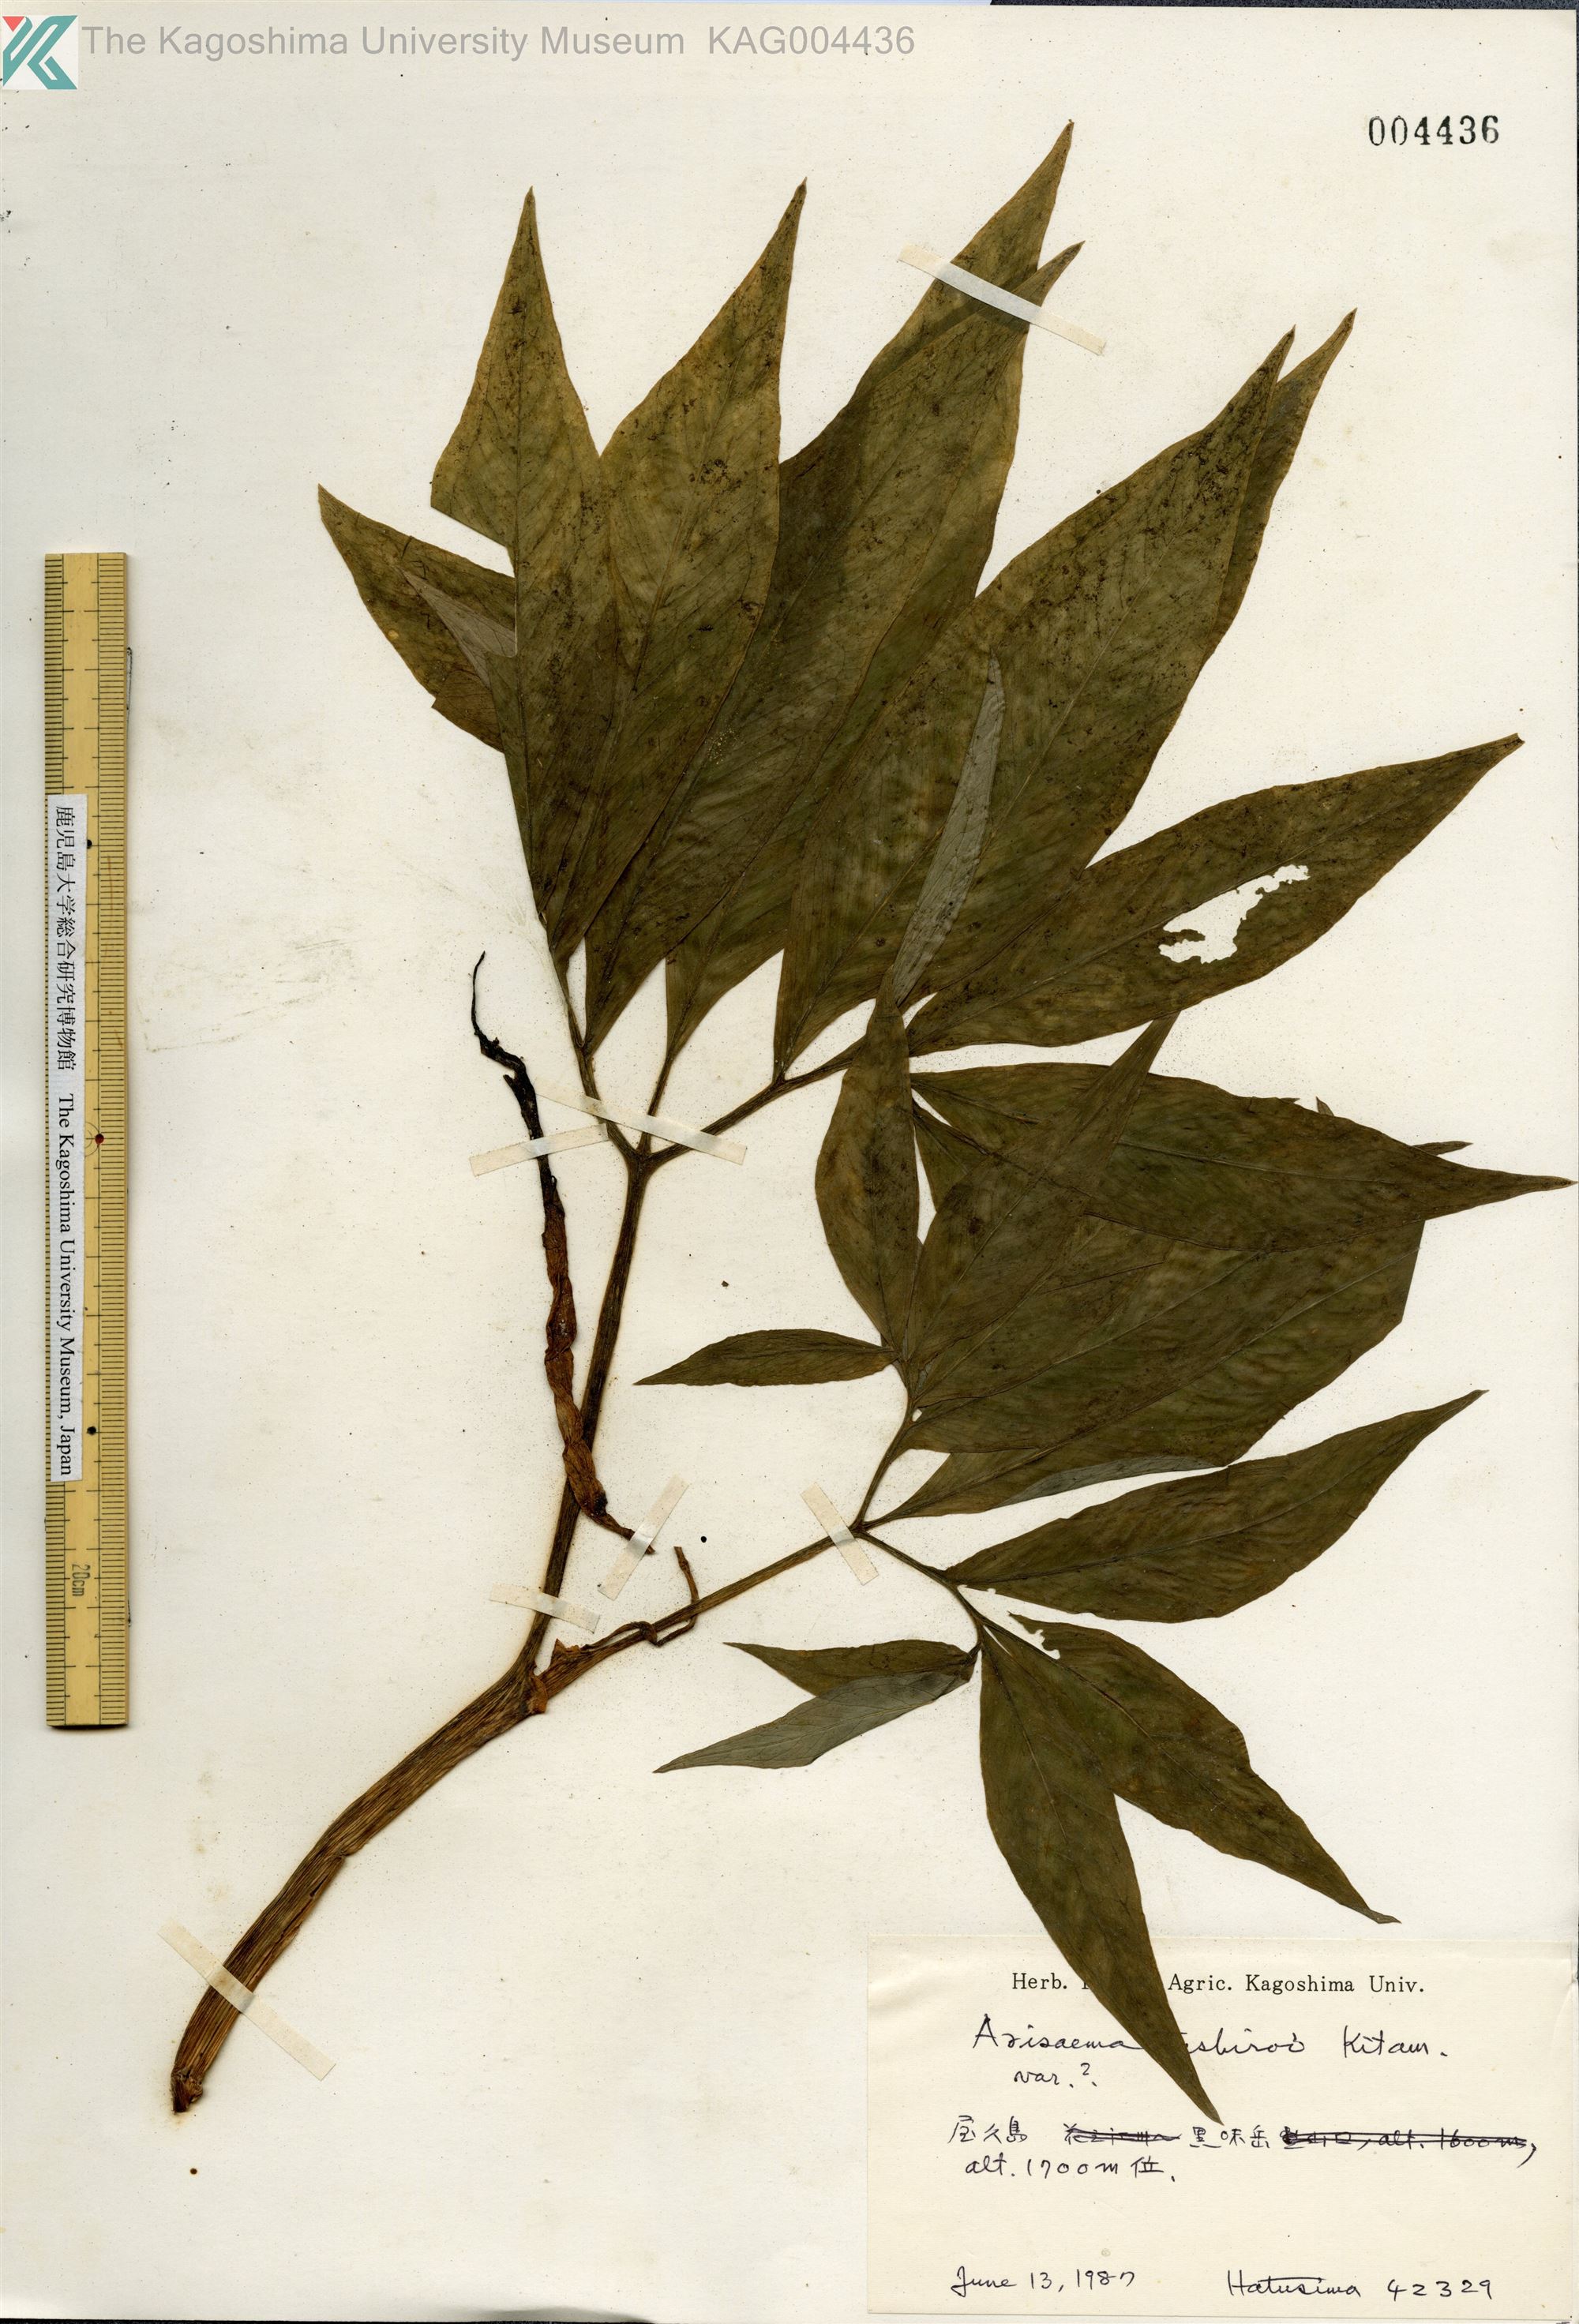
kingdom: Plantae
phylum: Tracheophyta
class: Liliopsida
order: Alismatales
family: Araceae
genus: Arisaema
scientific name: Arisaema tashiroi
